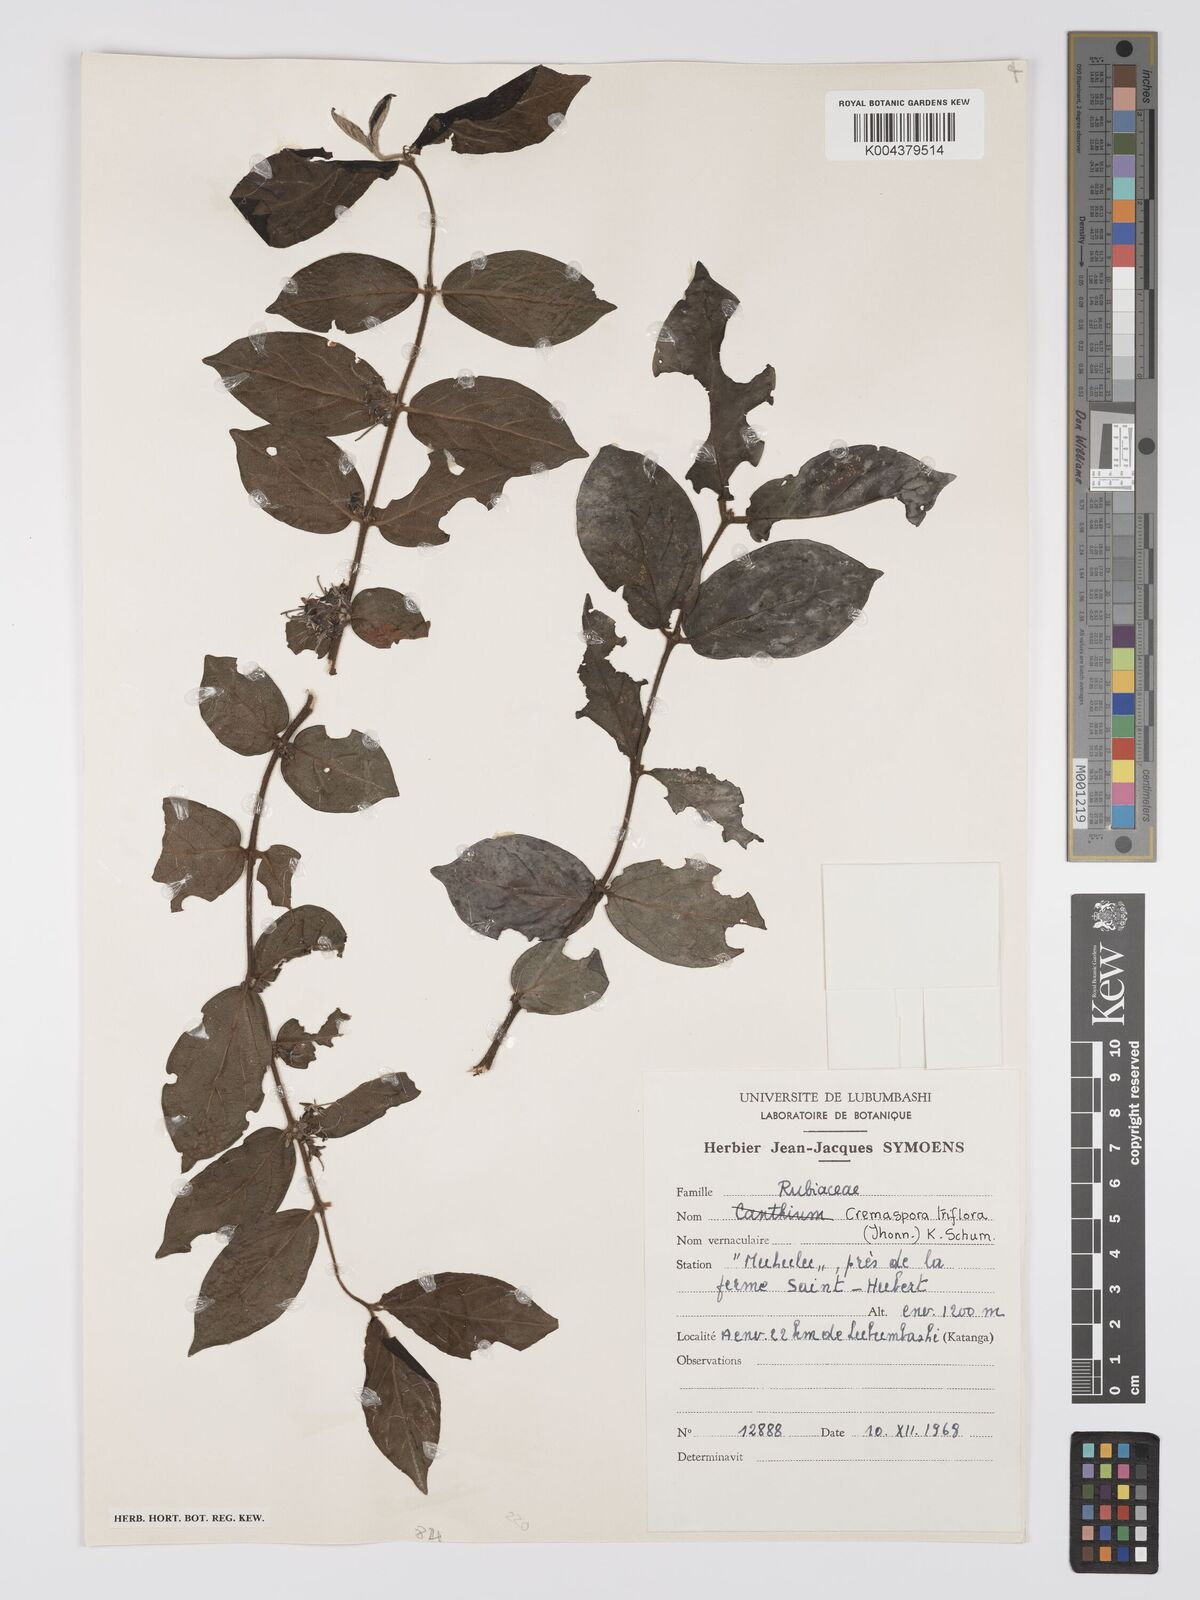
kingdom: Plantae
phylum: Tracheophyta
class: Magnoliopsida
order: Gentianales
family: Rubiaceae
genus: Cremaspora
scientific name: Cremaspora triflora
